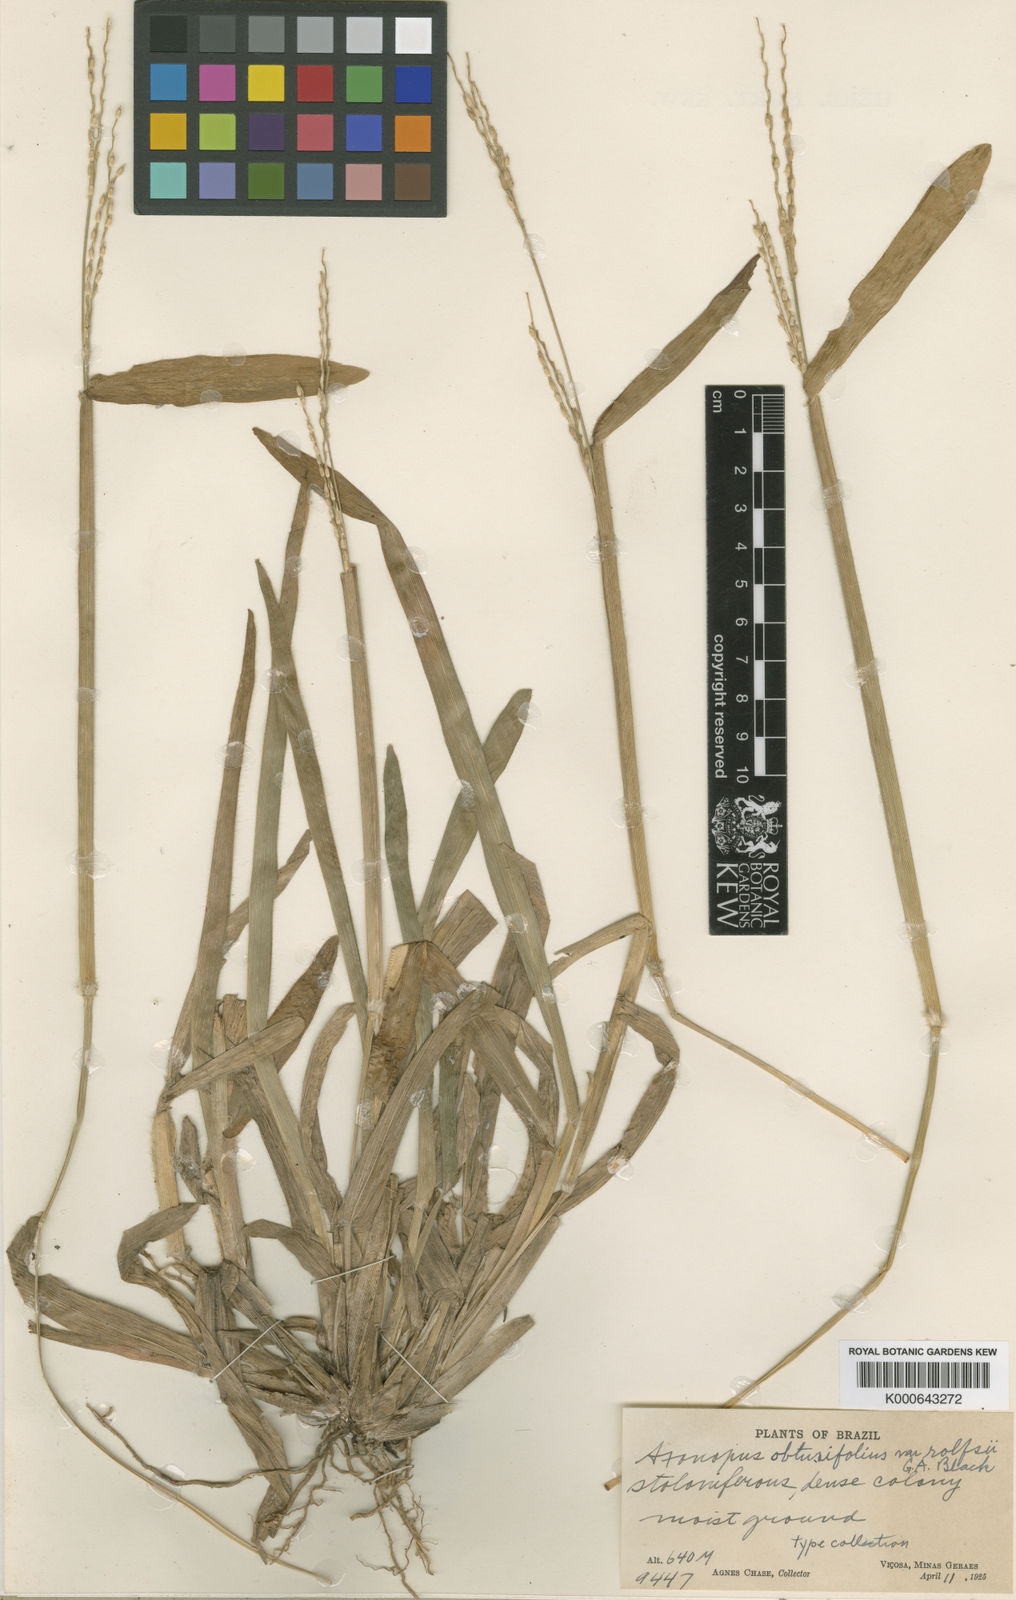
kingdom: Plantae
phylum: Tracheophyta
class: Liliopsida
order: Poales
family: Poaceae
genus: Axonopus
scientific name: Axonopus furcatus
